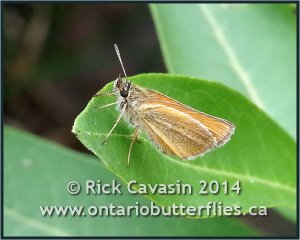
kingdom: Animalia
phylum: Arthropoda
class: Insecta
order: Lepidoptera
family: Hesperiidae
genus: Thymelicus
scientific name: Thymelicus lineola
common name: European Skipper
